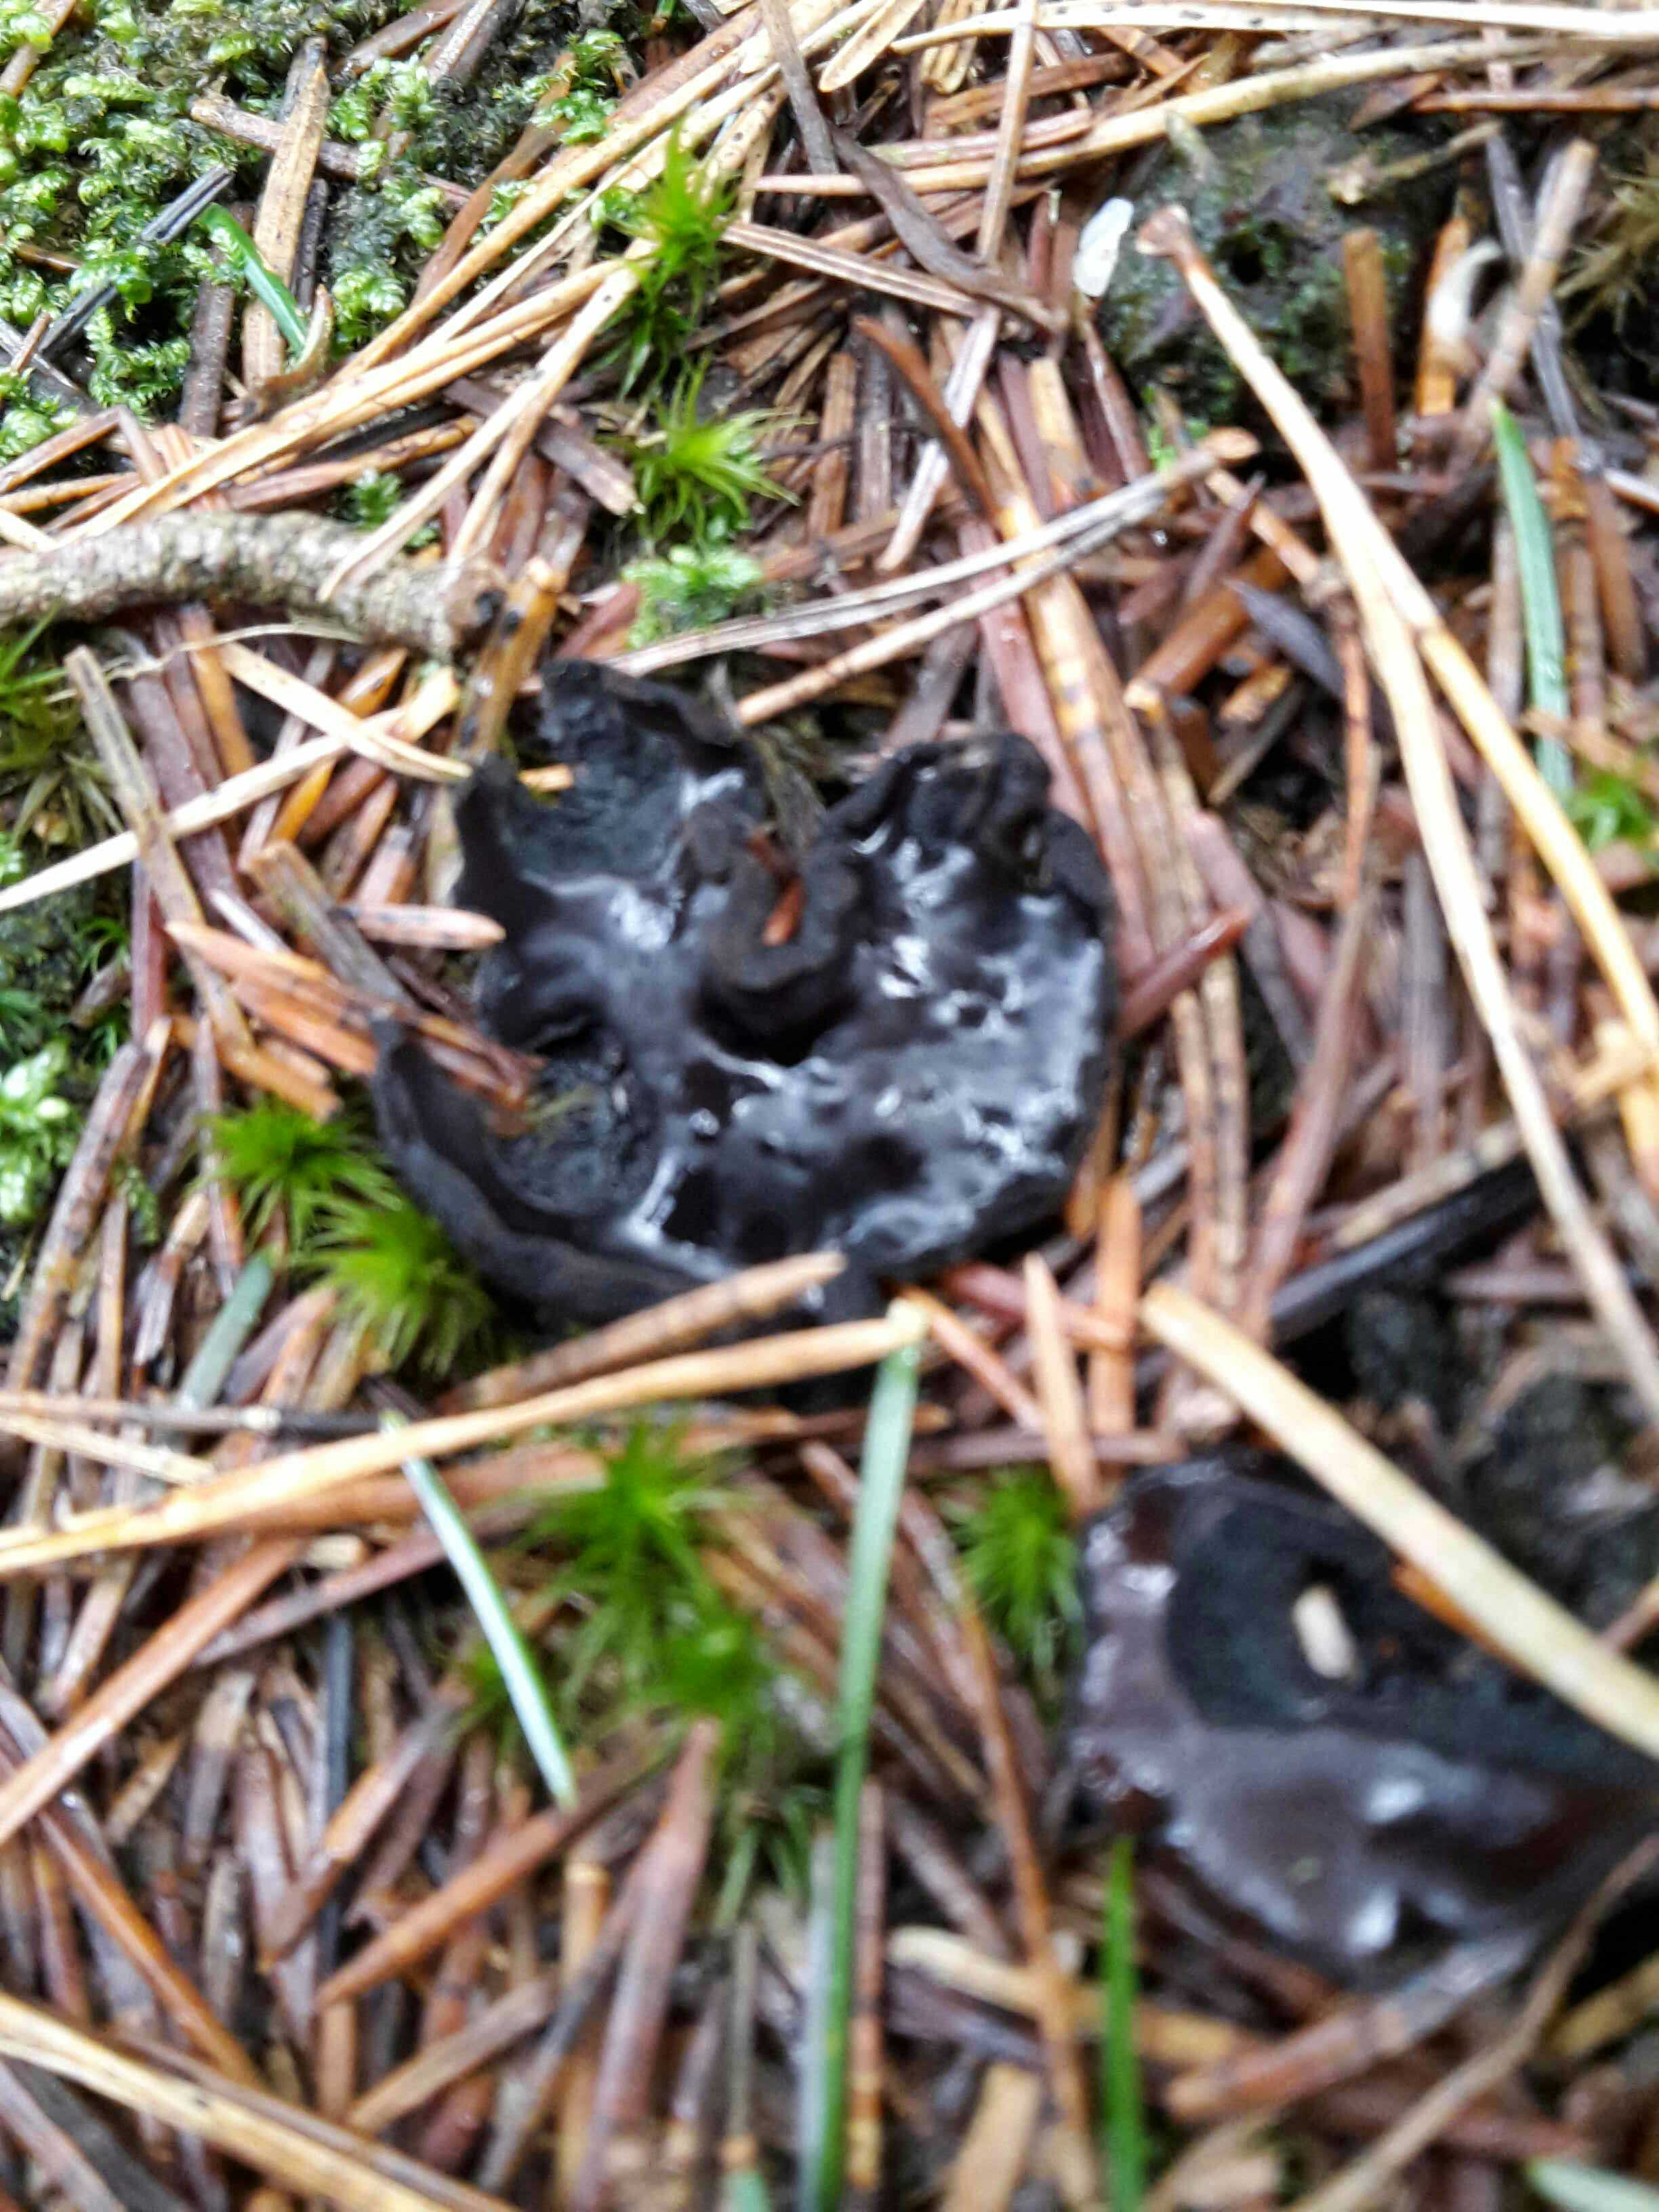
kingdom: Fungi
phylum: Ascomycota
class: Pezizomycetes
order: Pezizales
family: Sarcosomataceae
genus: Pseudoplectania
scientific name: Pseudoplectania nigrella
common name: almindelig sortbæger
